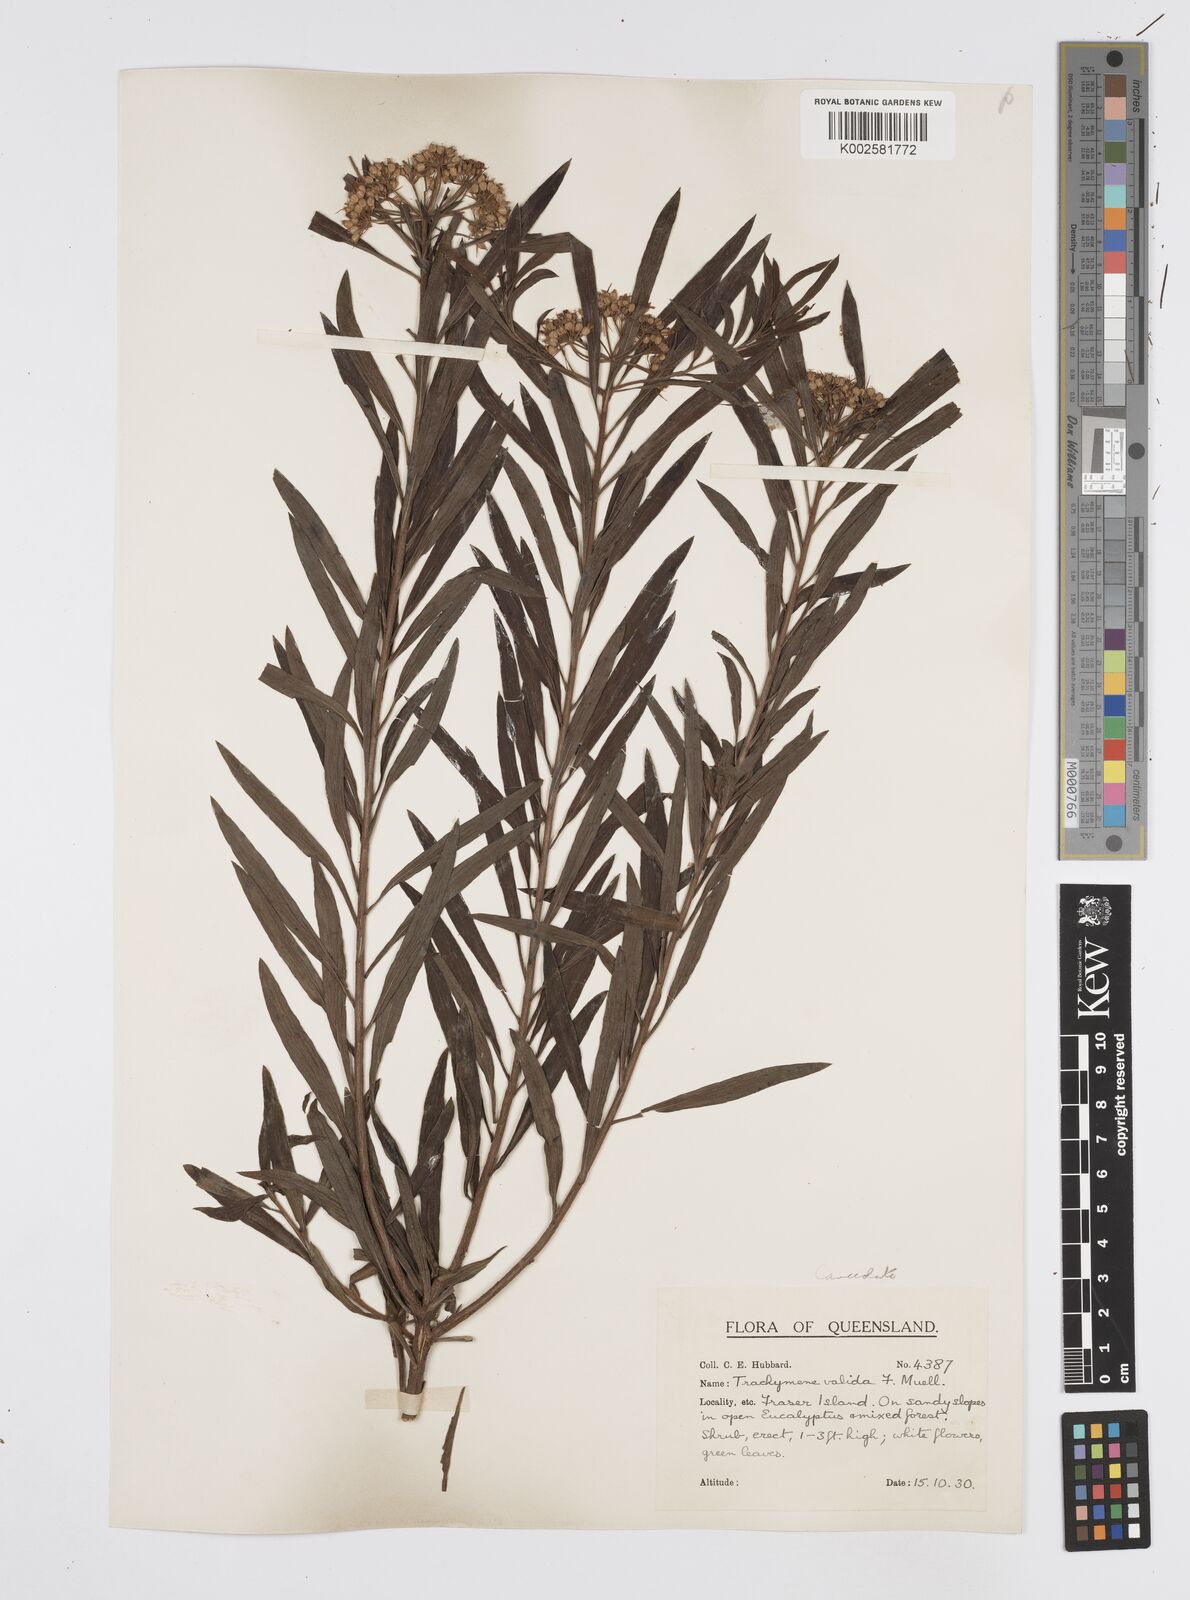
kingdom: Plantae
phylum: Tracheophyta
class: Magnoliopsida
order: Apiales
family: Apiaceae
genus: Platysace
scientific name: Platysace lanceolata
